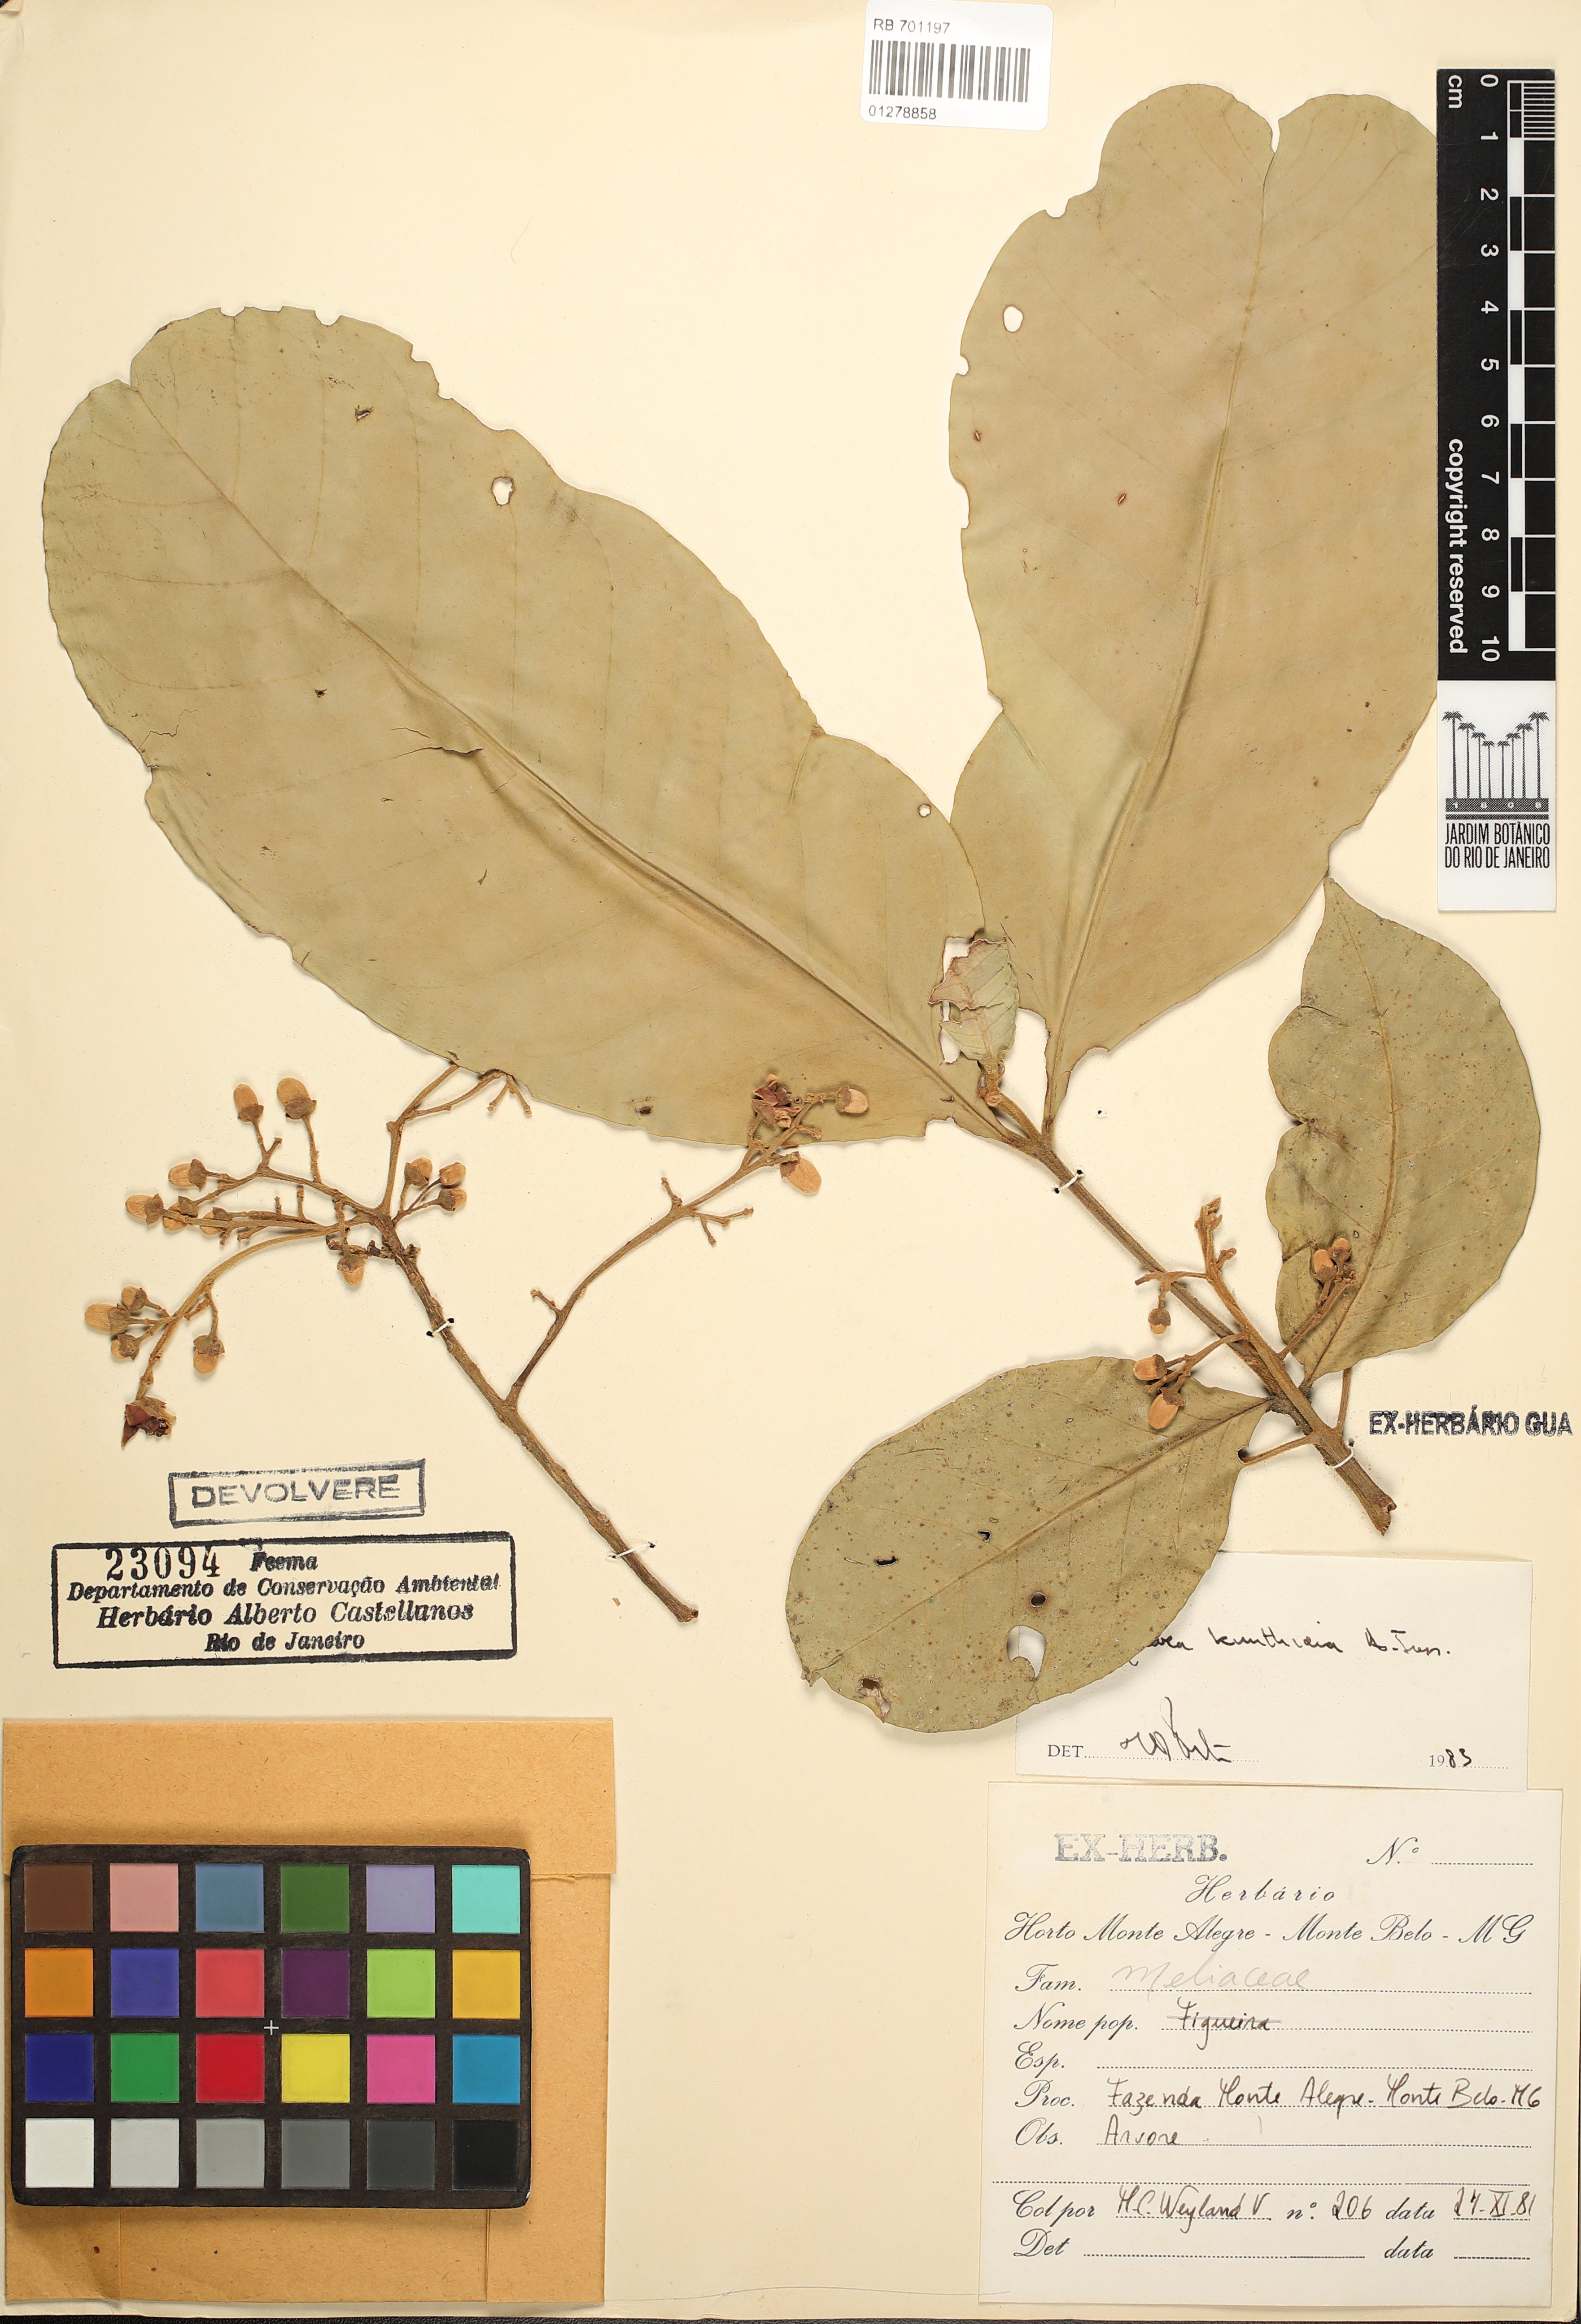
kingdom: Plantae
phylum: Tracheophyta
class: Magnoliopsida
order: Sapindales
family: Meliaceae
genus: Guarea
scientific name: Guarea kunthiana
